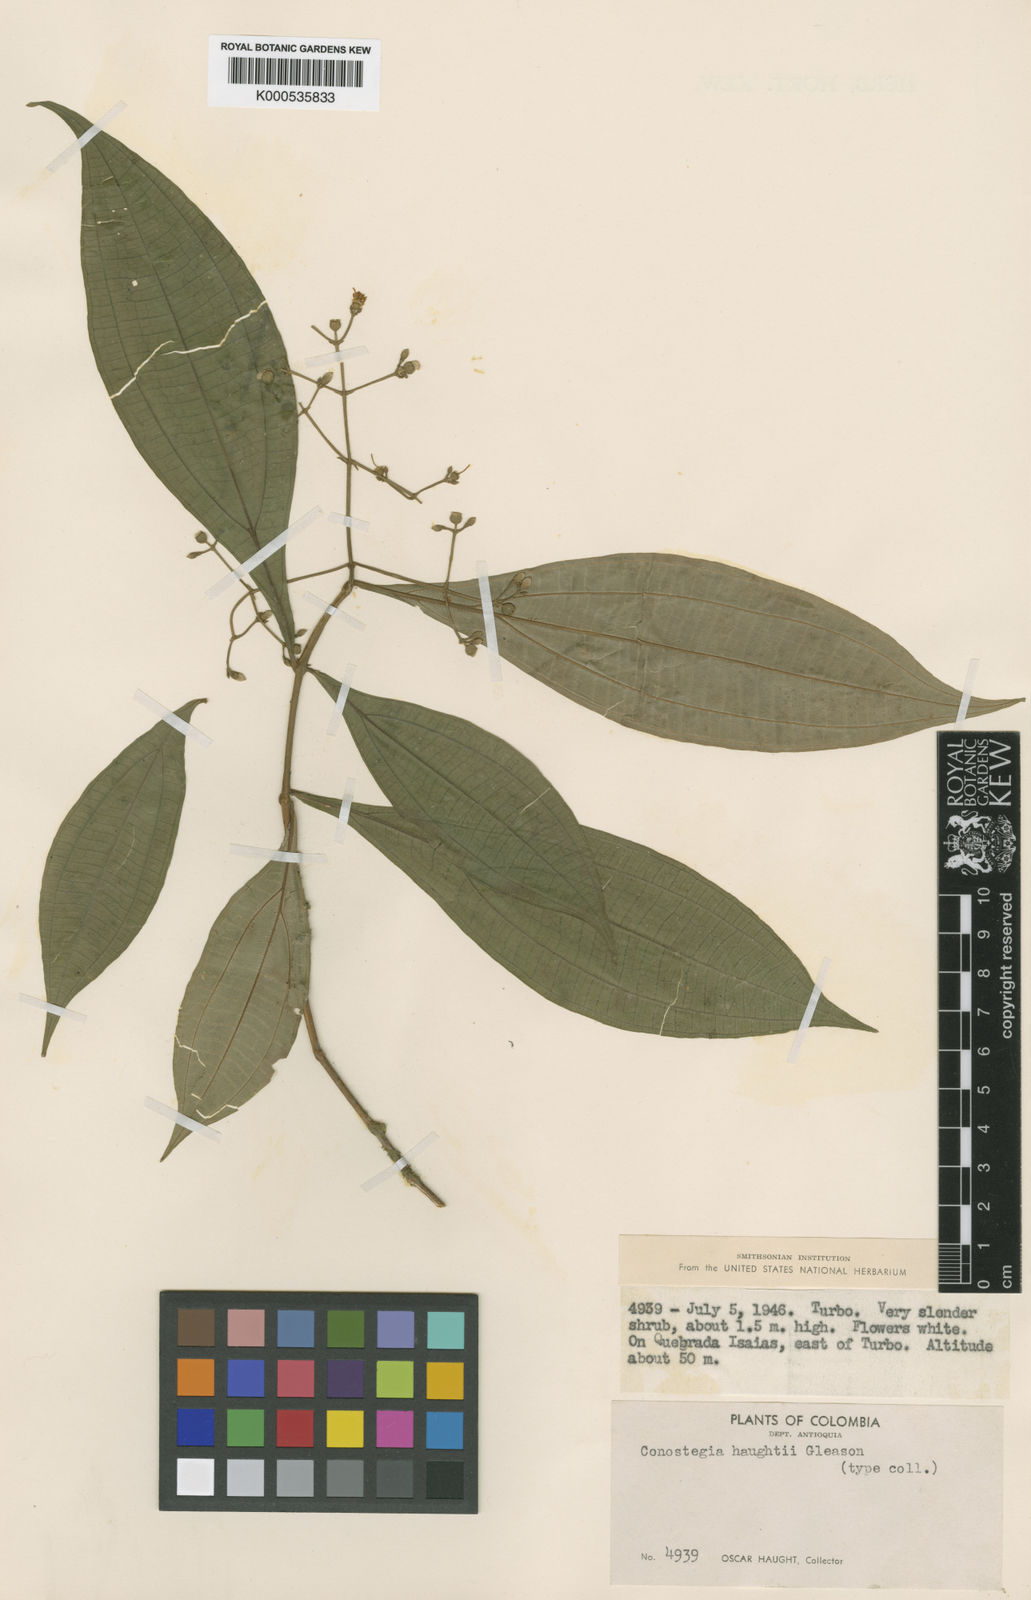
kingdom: Plantae
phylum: Tracheophyta
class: Magnoliopsida
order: Myrtales
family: Melastomataceae
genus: Miconia
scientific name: Miconia cinnamomea
